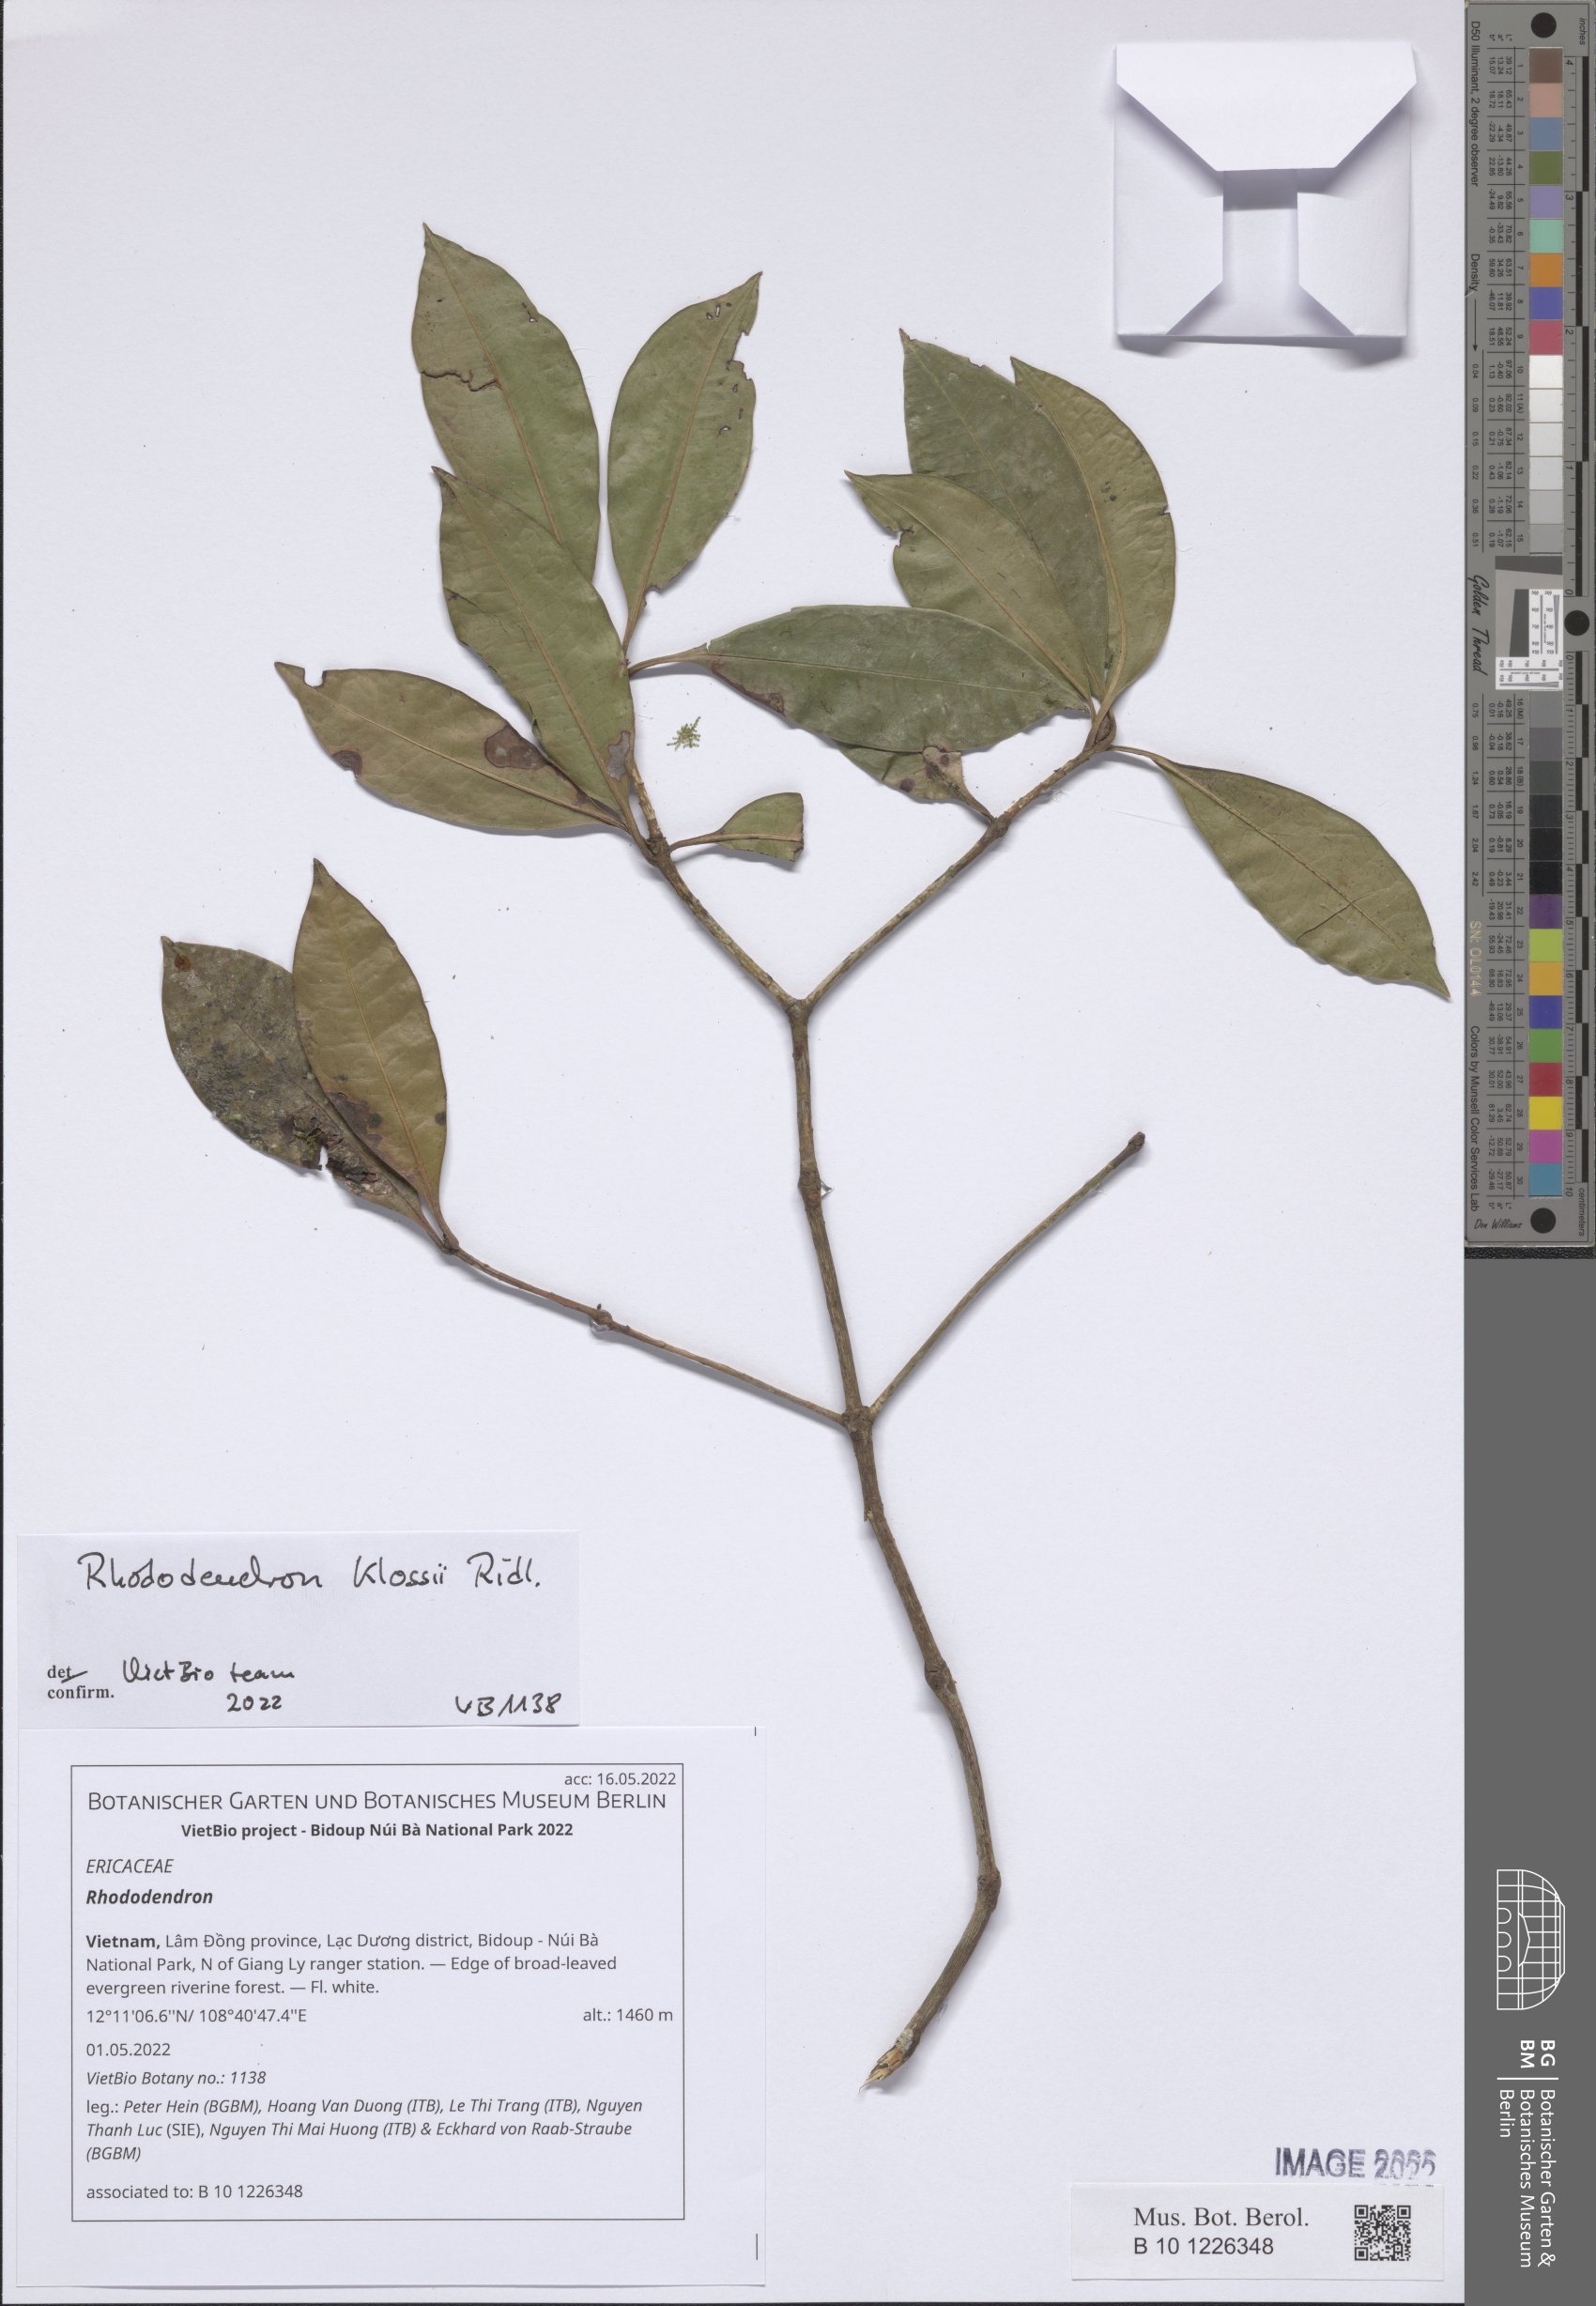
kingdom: Plantae
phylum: Tracheophyta
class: Magnoliopsida
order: Ericales
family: Ericaceae
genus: Rhododendron
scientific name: Rhododendron
